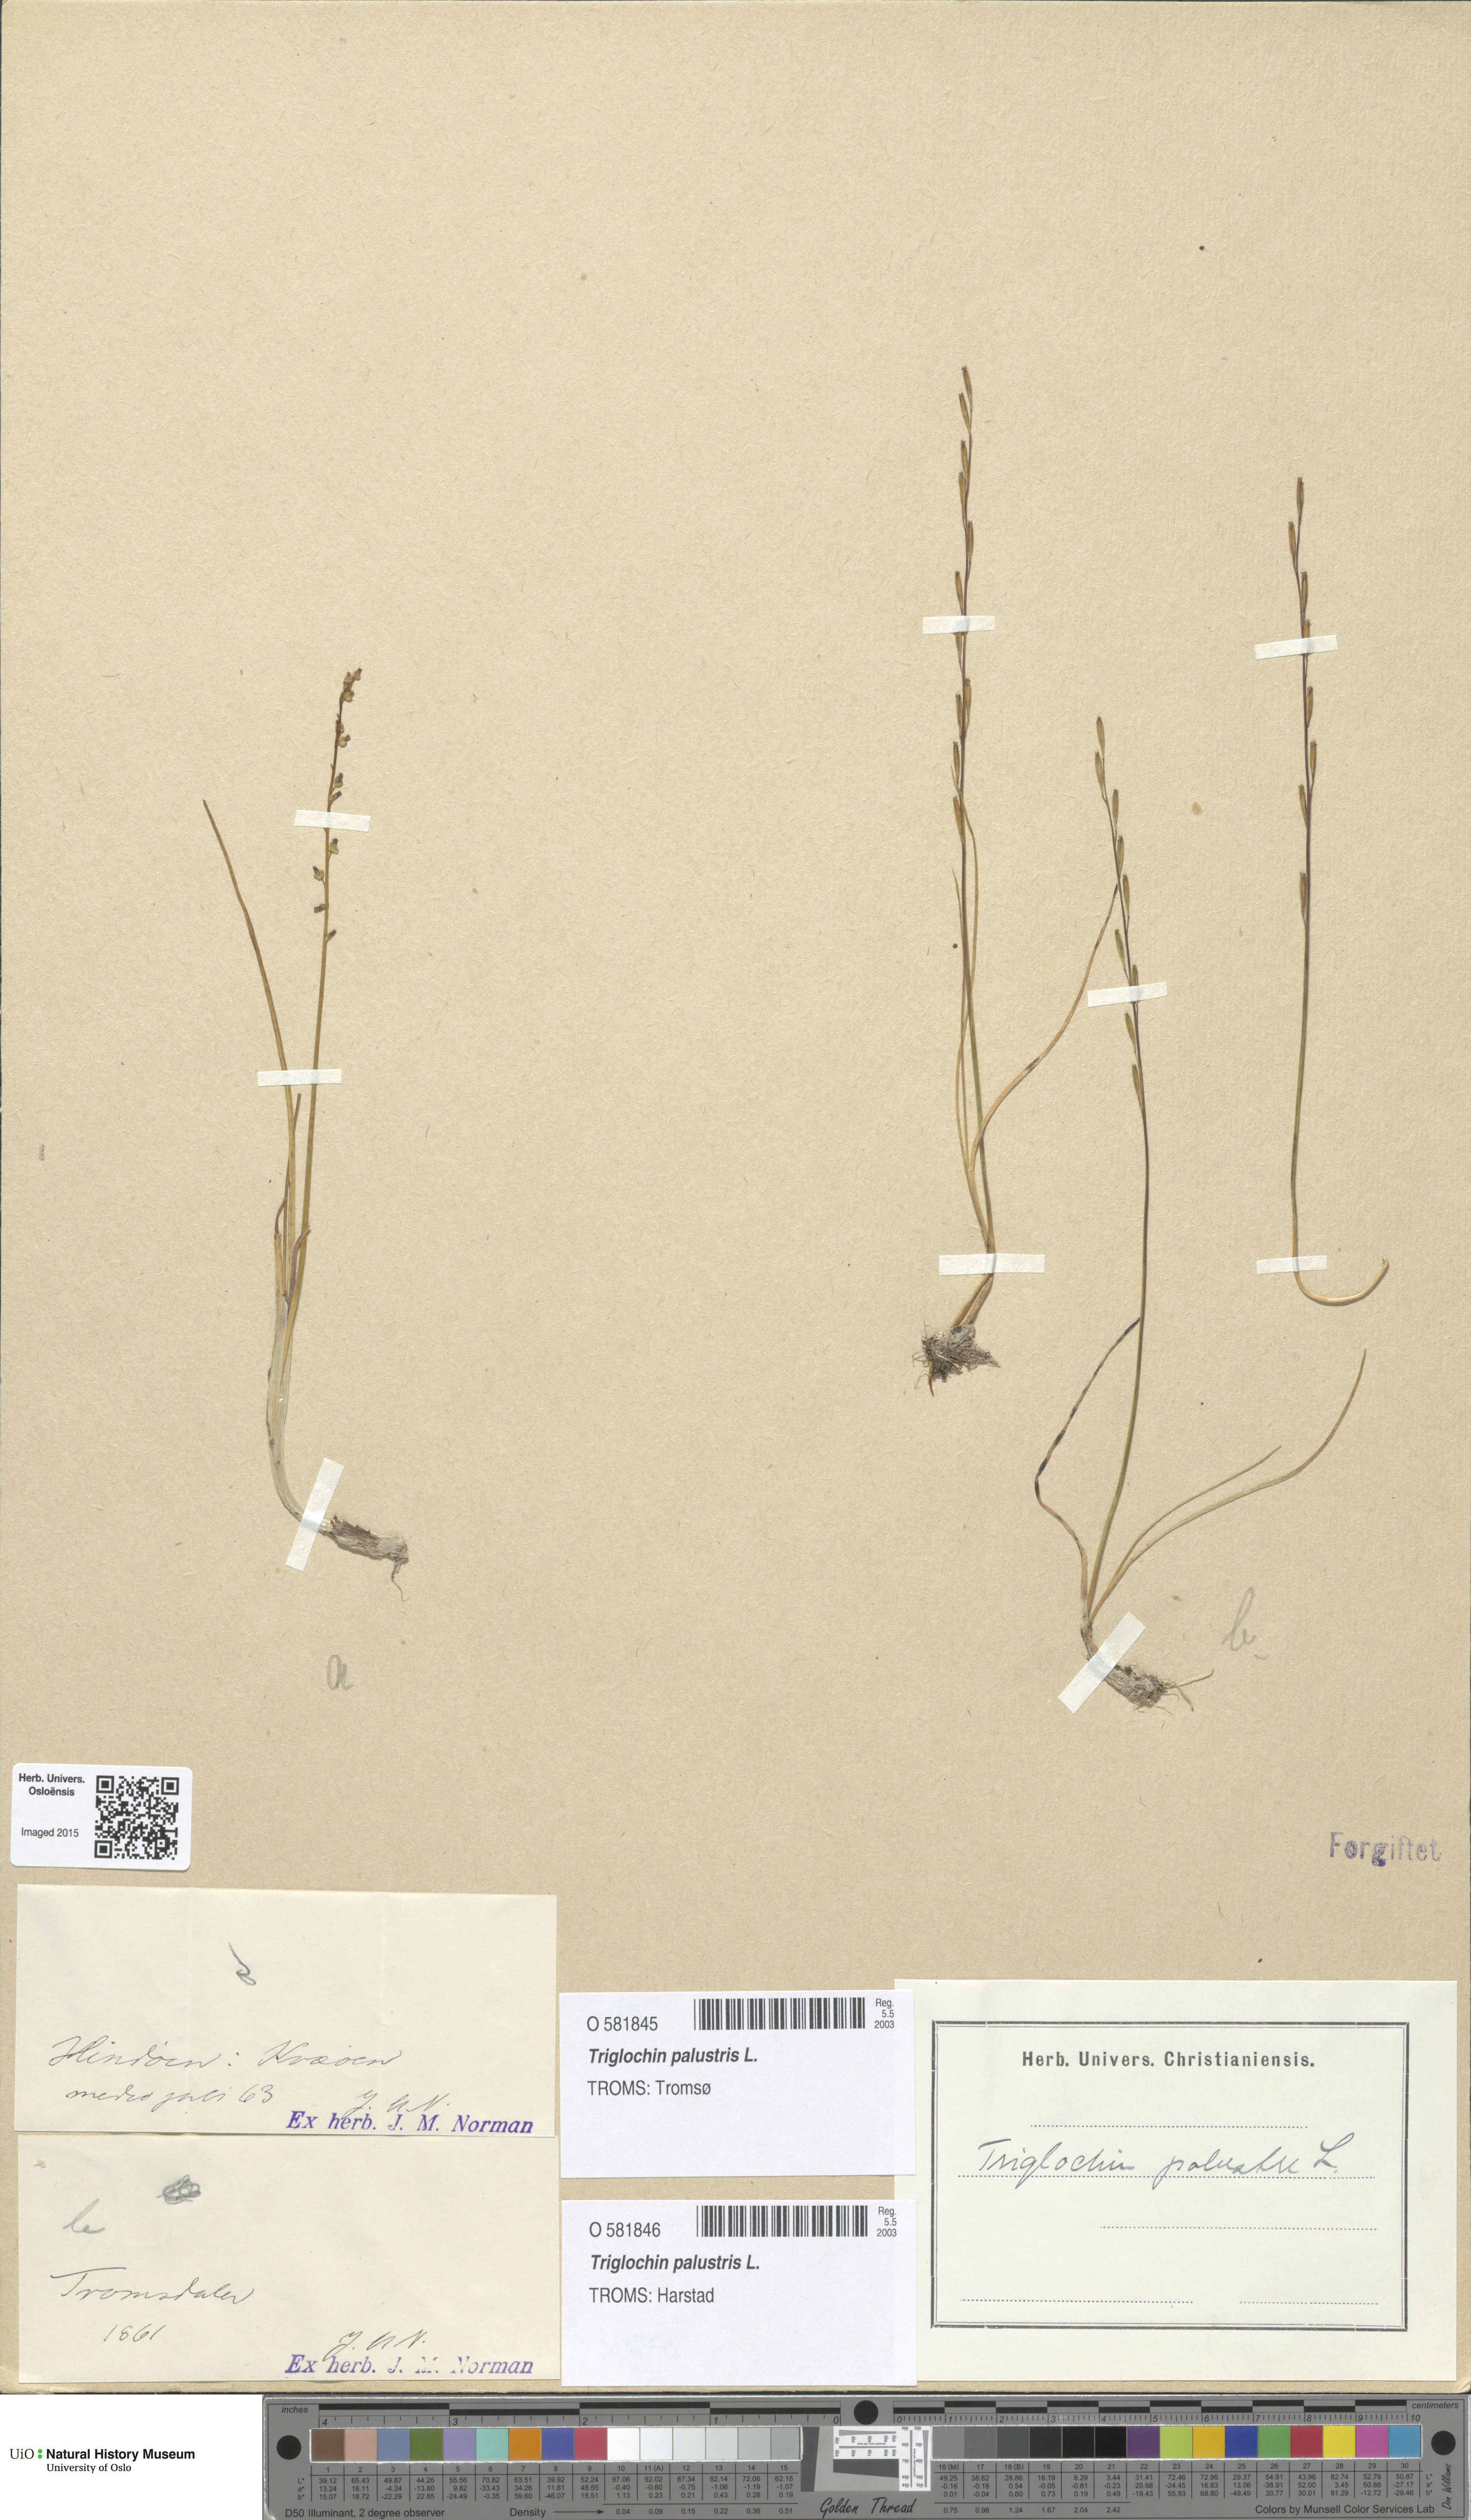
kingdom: Plantae
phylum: Tracheophyta
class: Liliopsida
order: Alismatales
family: Juncaginaceae
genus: Triglochin
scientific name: Triglochin palustris
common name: Marsh arrowgrass
